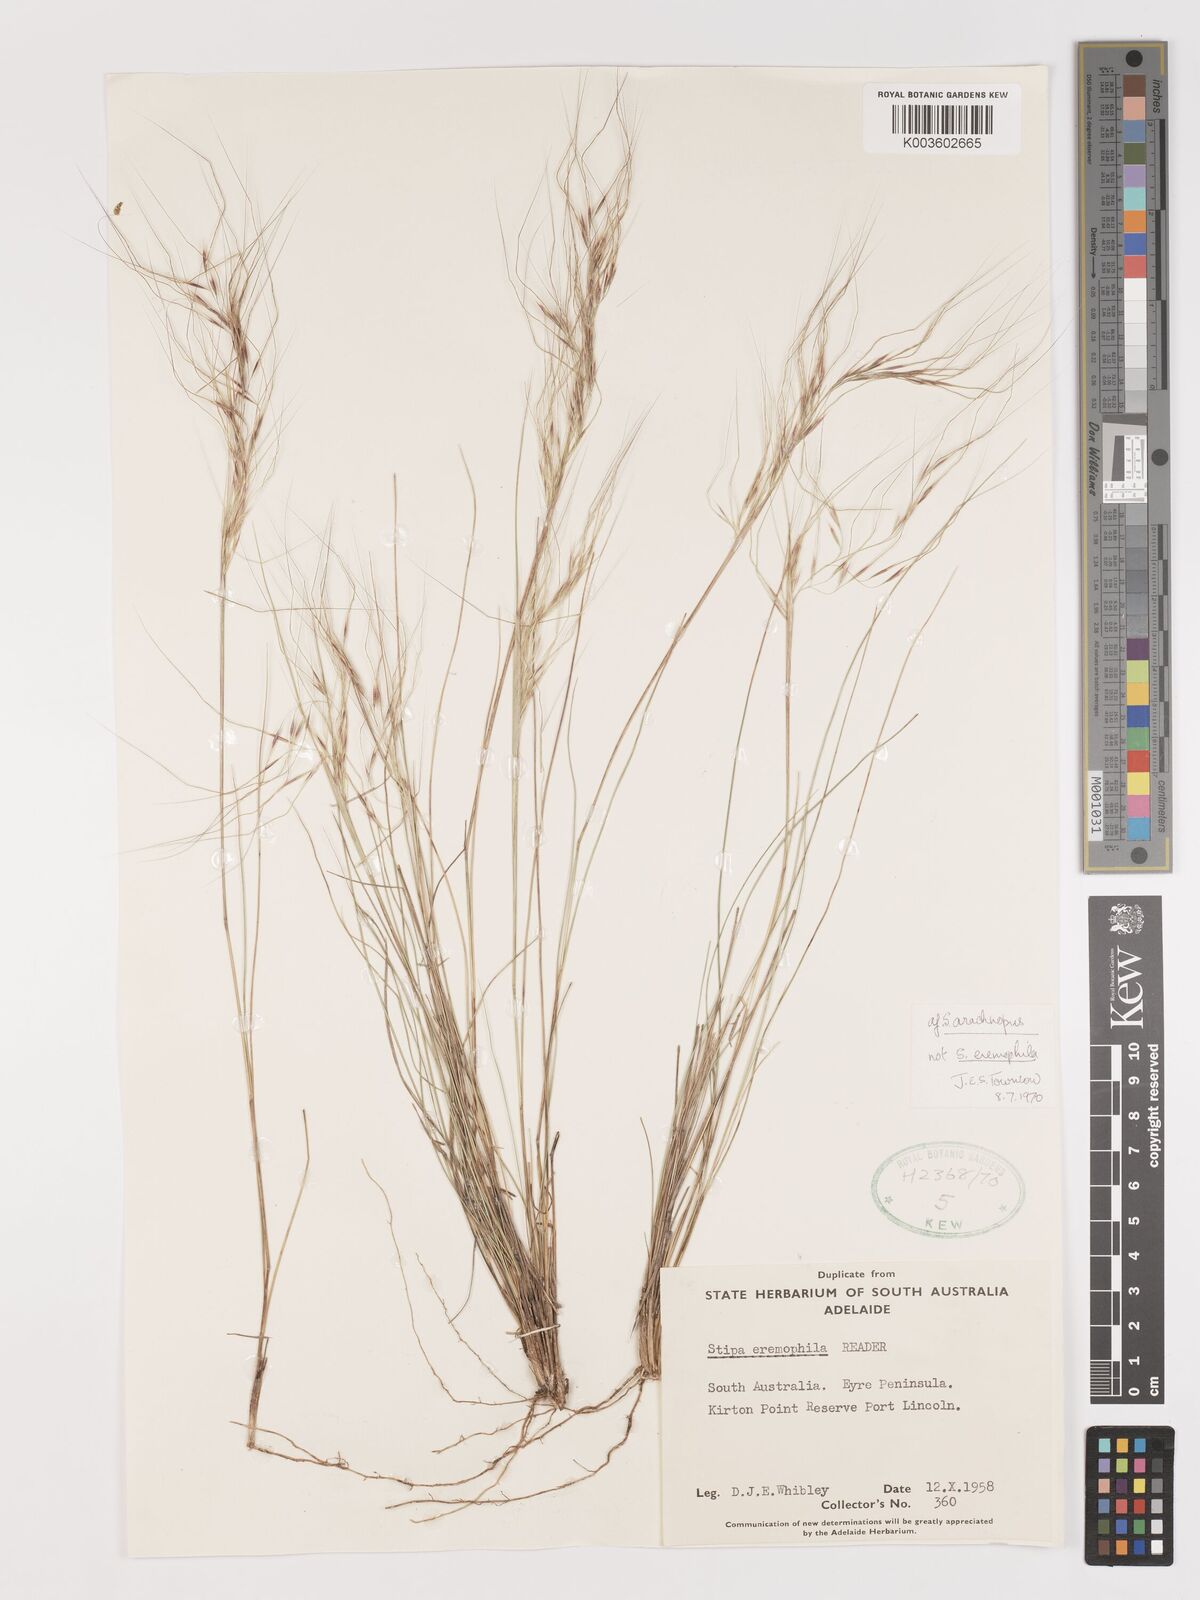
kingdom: Plantae
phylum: Tracheophyta
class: Liliopsida
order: Poales
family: Poaceae
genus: Austrostipa
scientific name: Austrostipa eremophila
